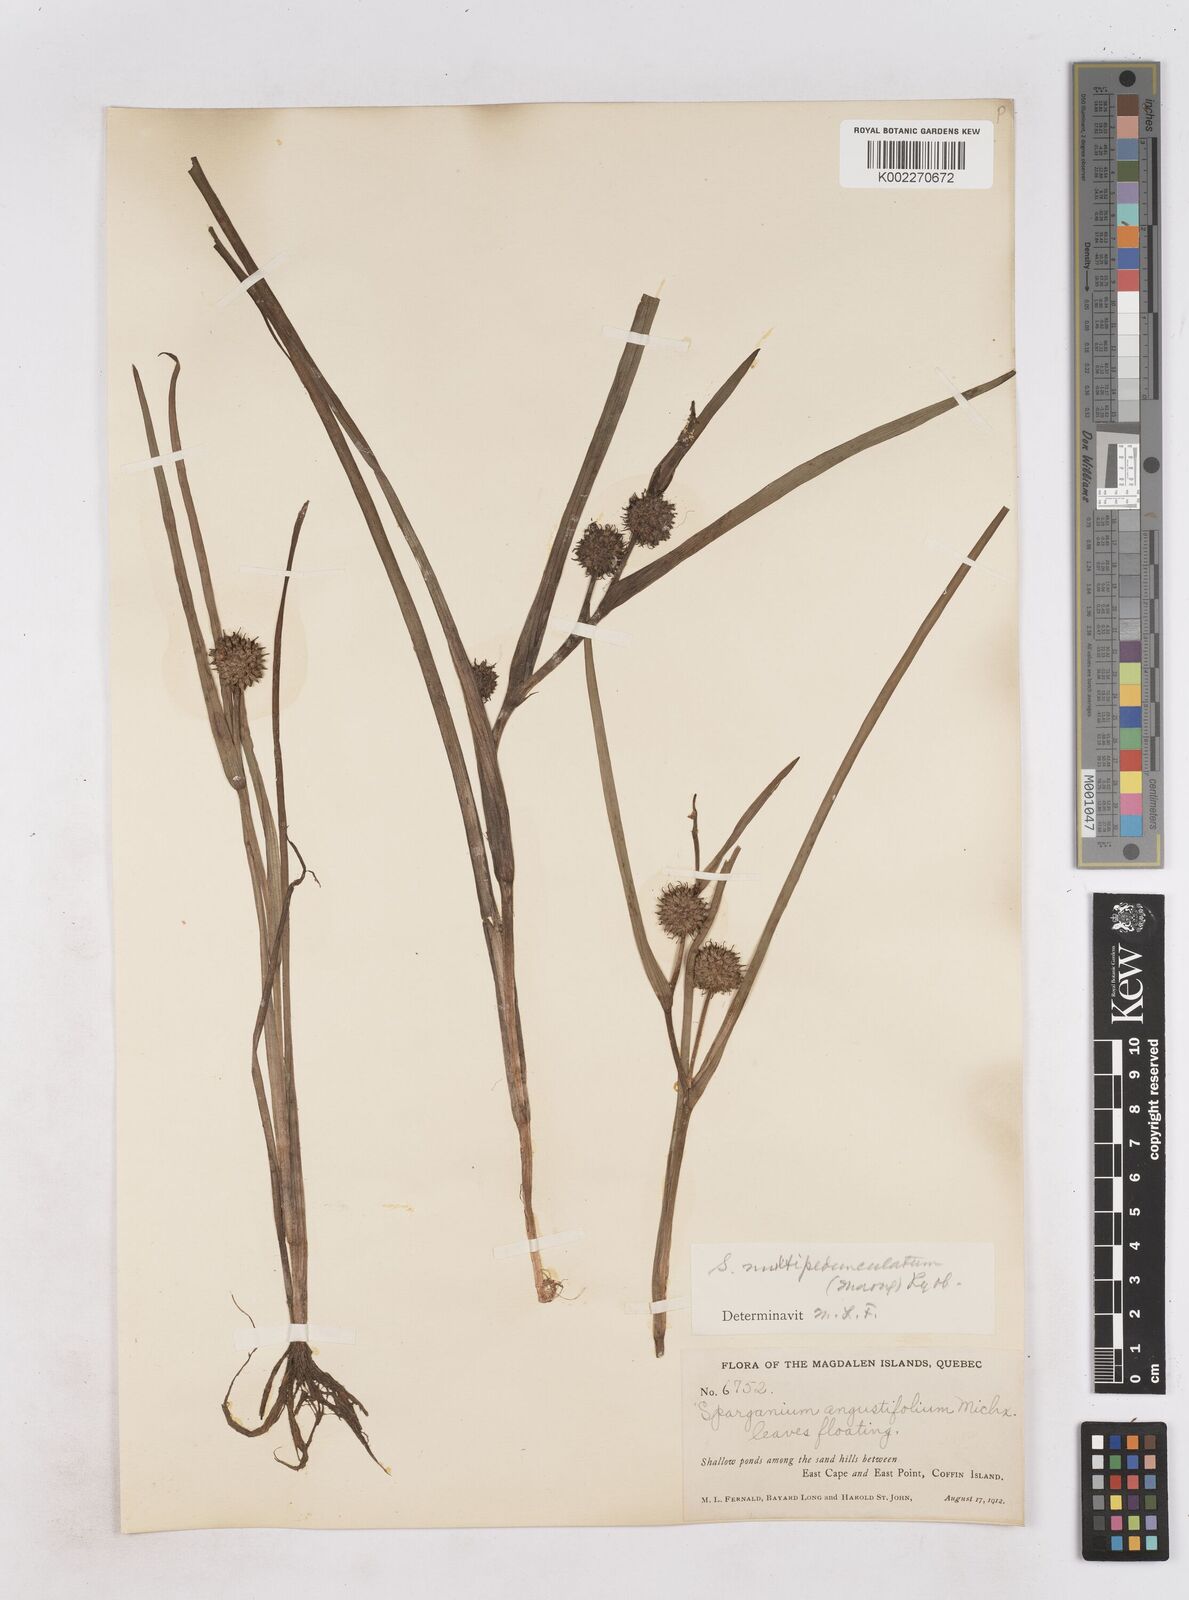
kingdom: Plantae
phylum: Tracheophyta
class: Liliopsida
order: Poales
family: Typhaceae
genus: Sparganium
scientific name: Sparganium emersum
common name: Unbranched bur-reed
